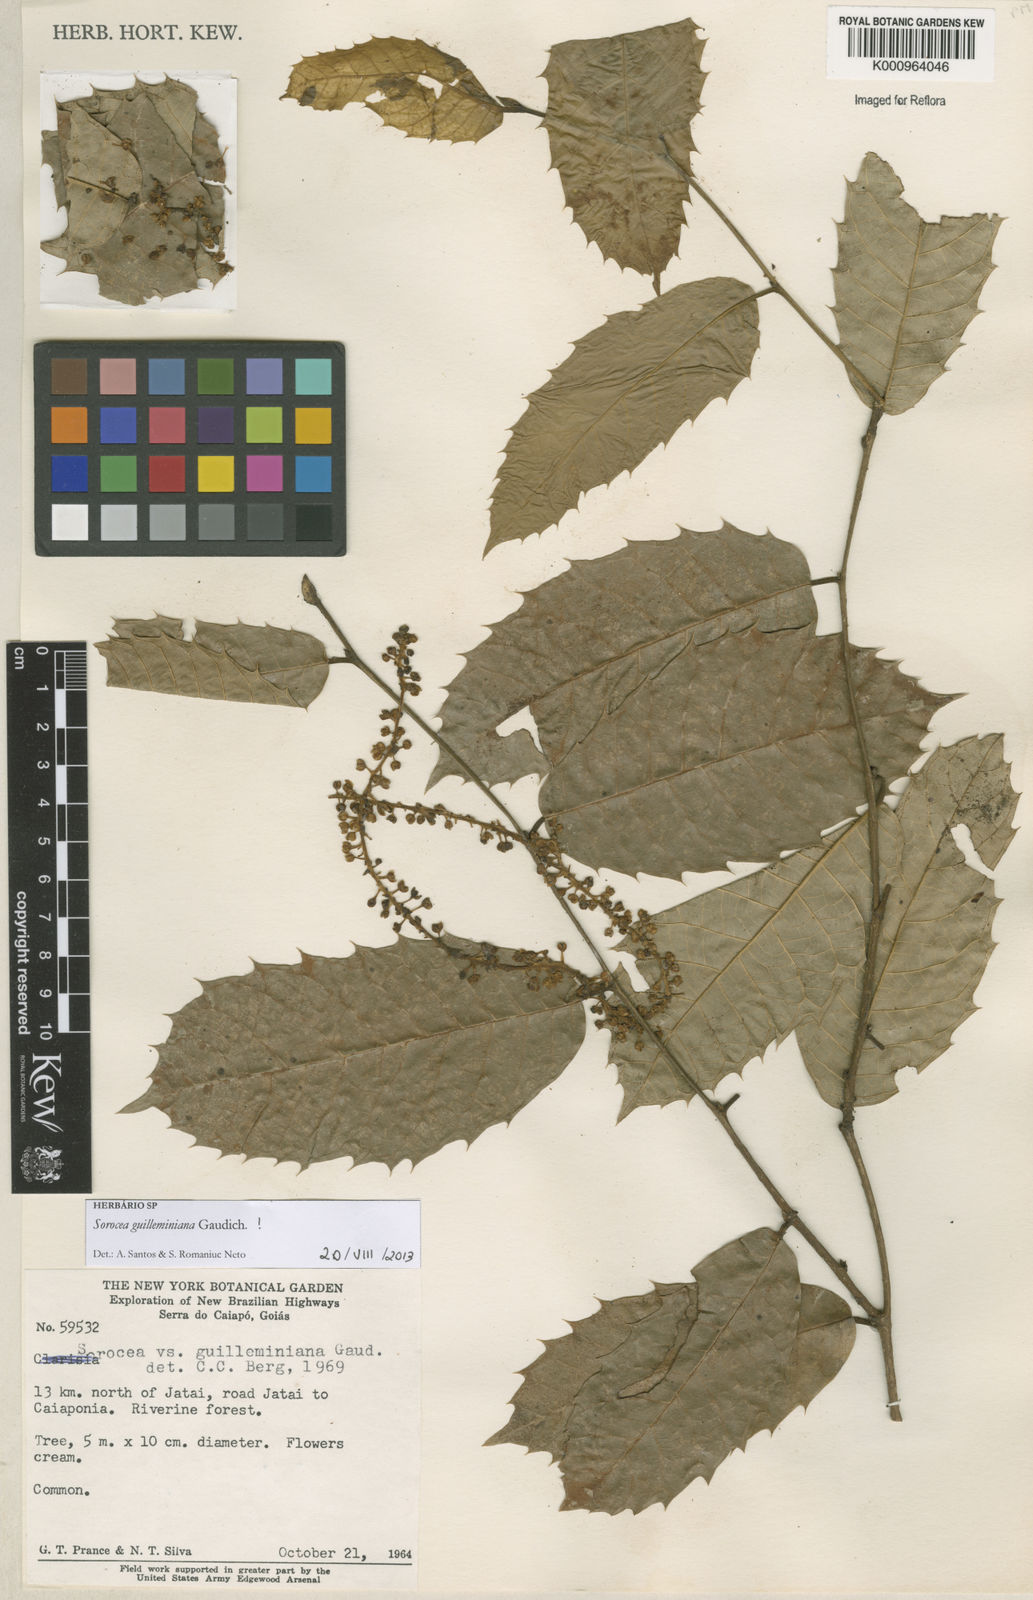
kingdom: Plantae
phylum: Tracheophyta
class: Magnoliopsida
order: Rosales
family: Moraceae
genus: Sorocea
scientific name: Sorocea guilleminiana
